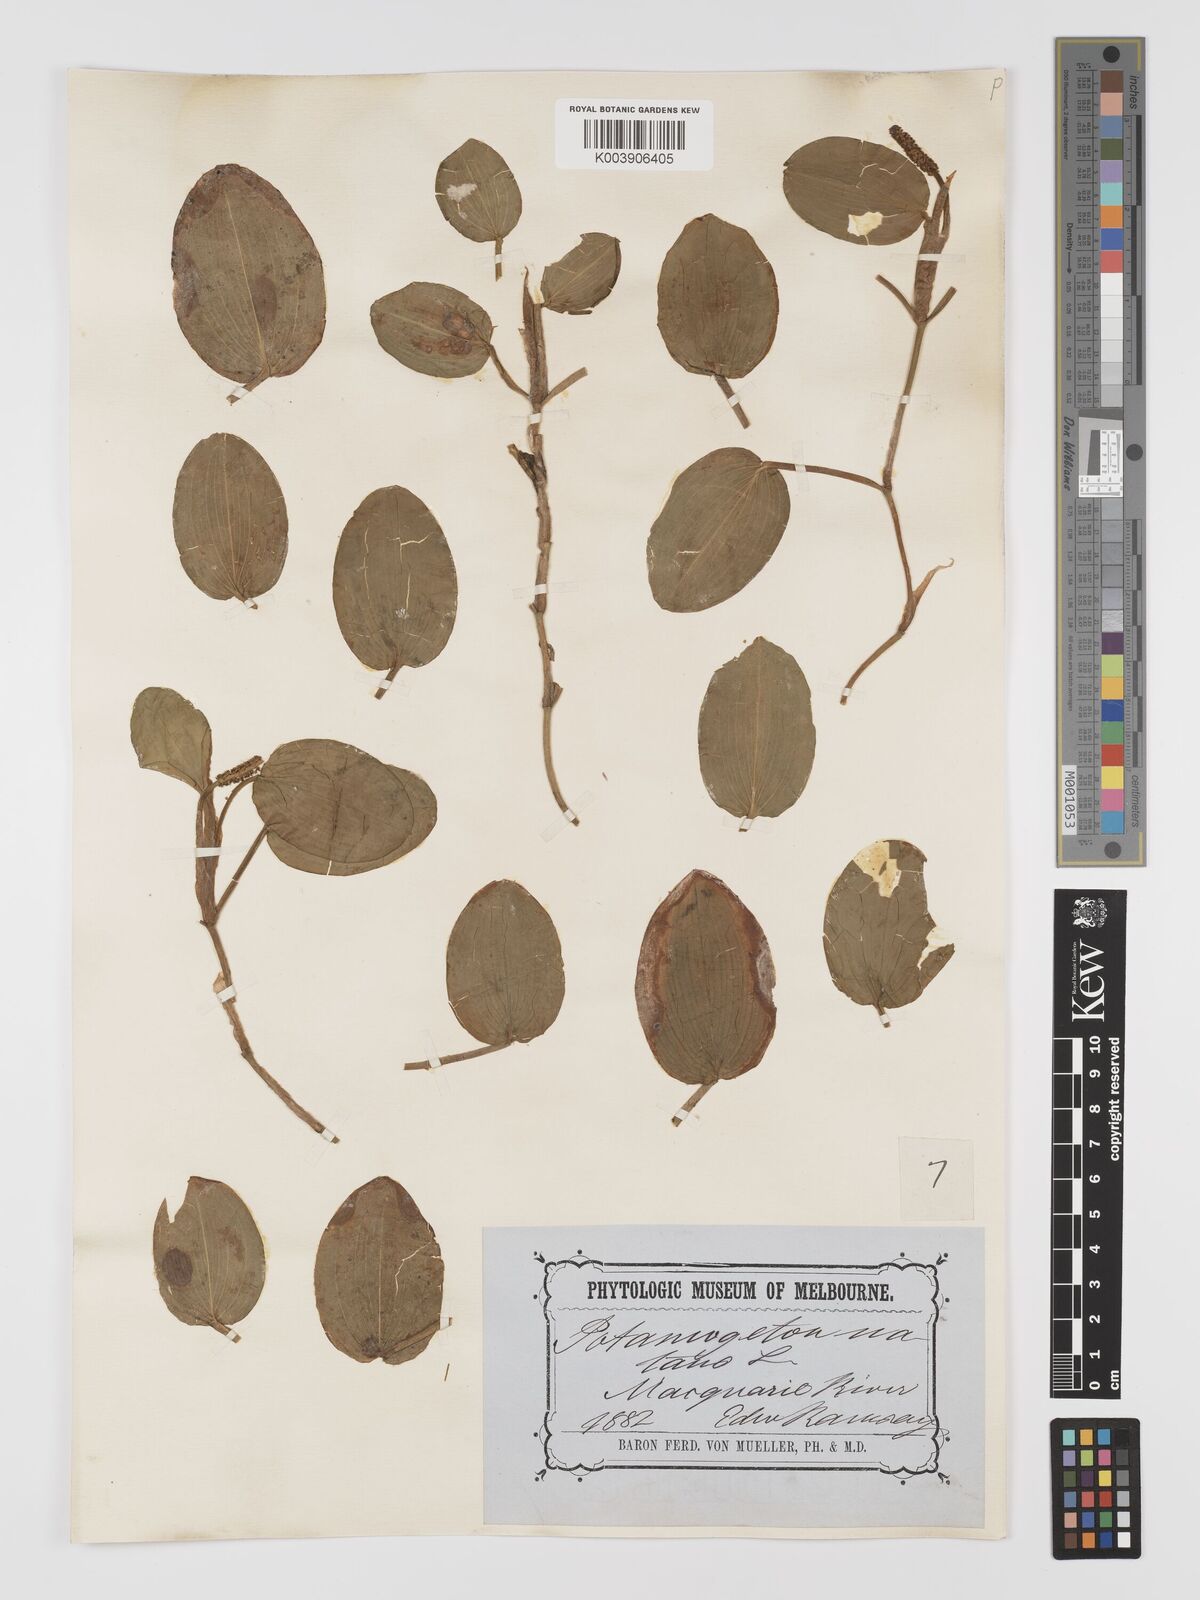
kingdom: Plantae
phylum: Tracheophyta
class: Liliopsida
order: Alismatales
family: Potamogetonaceae
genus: Potamogeton
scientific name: Potamogeton tricarinatus
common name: Pondweed
